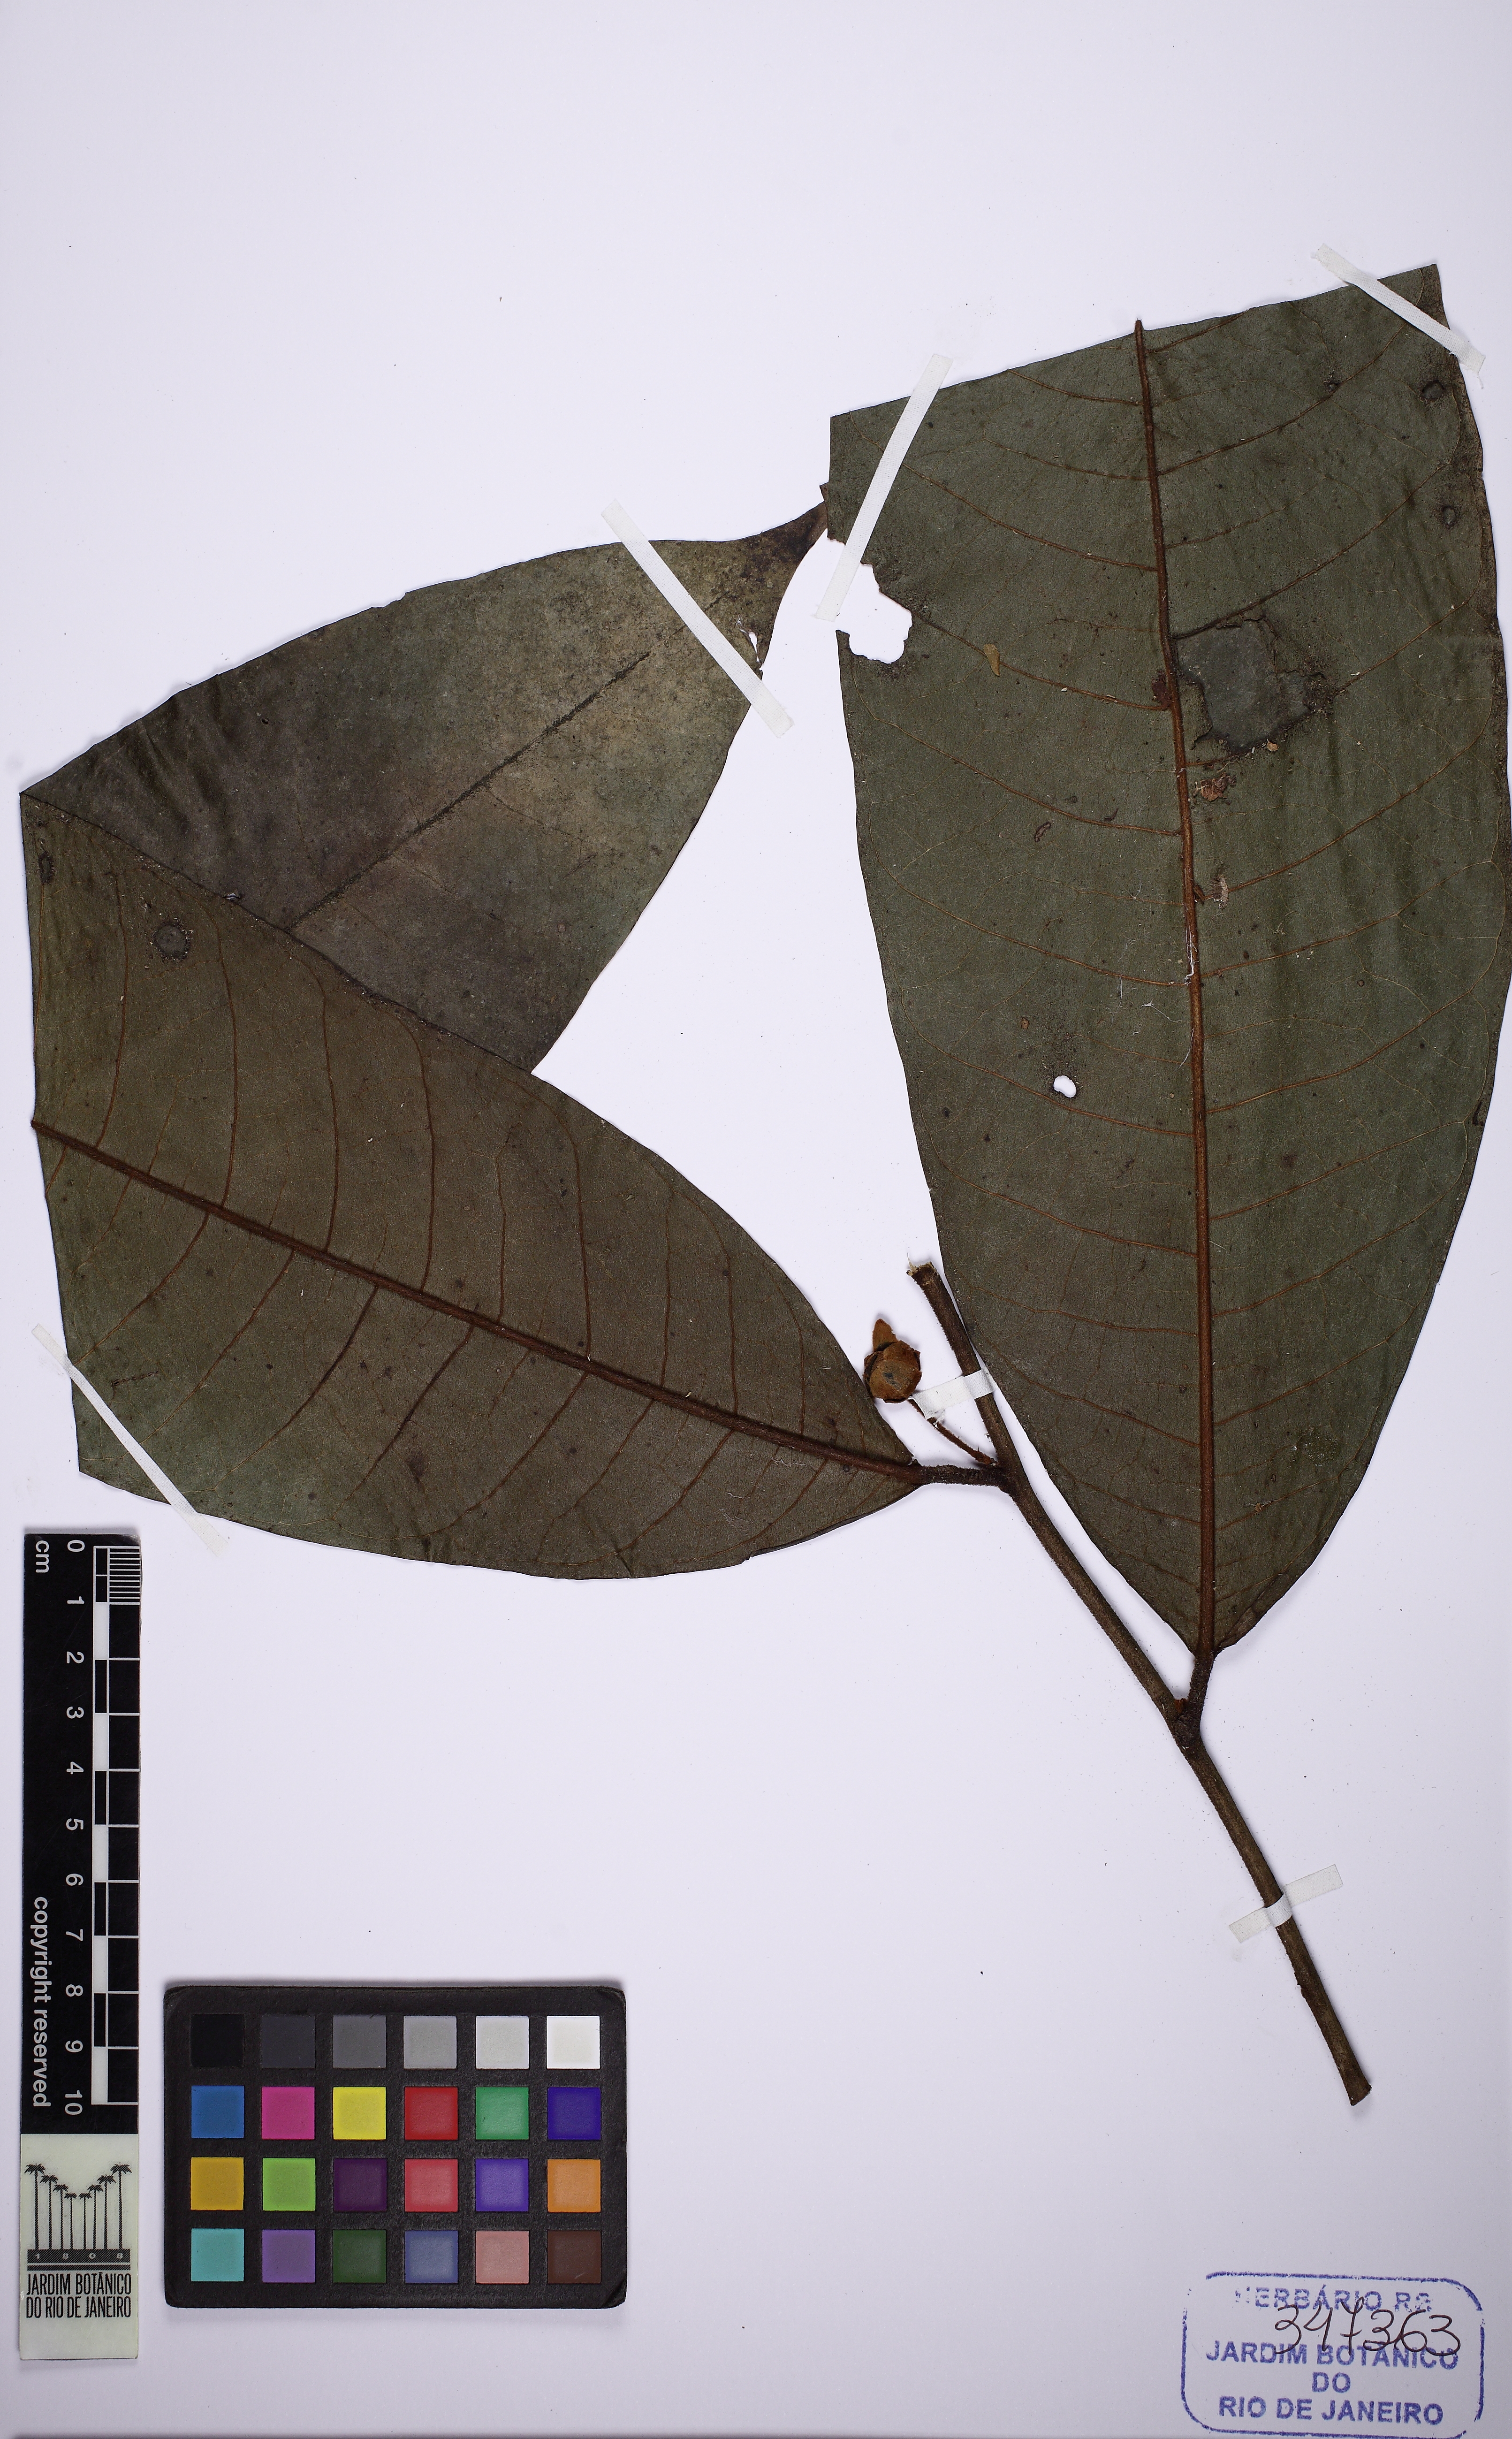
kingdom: Plantae
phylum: Tracheophyta
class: Magnoliopsida
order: Magnoliales
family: Annonaceae
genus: Guatteria
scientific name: Guatteria ferruginea
